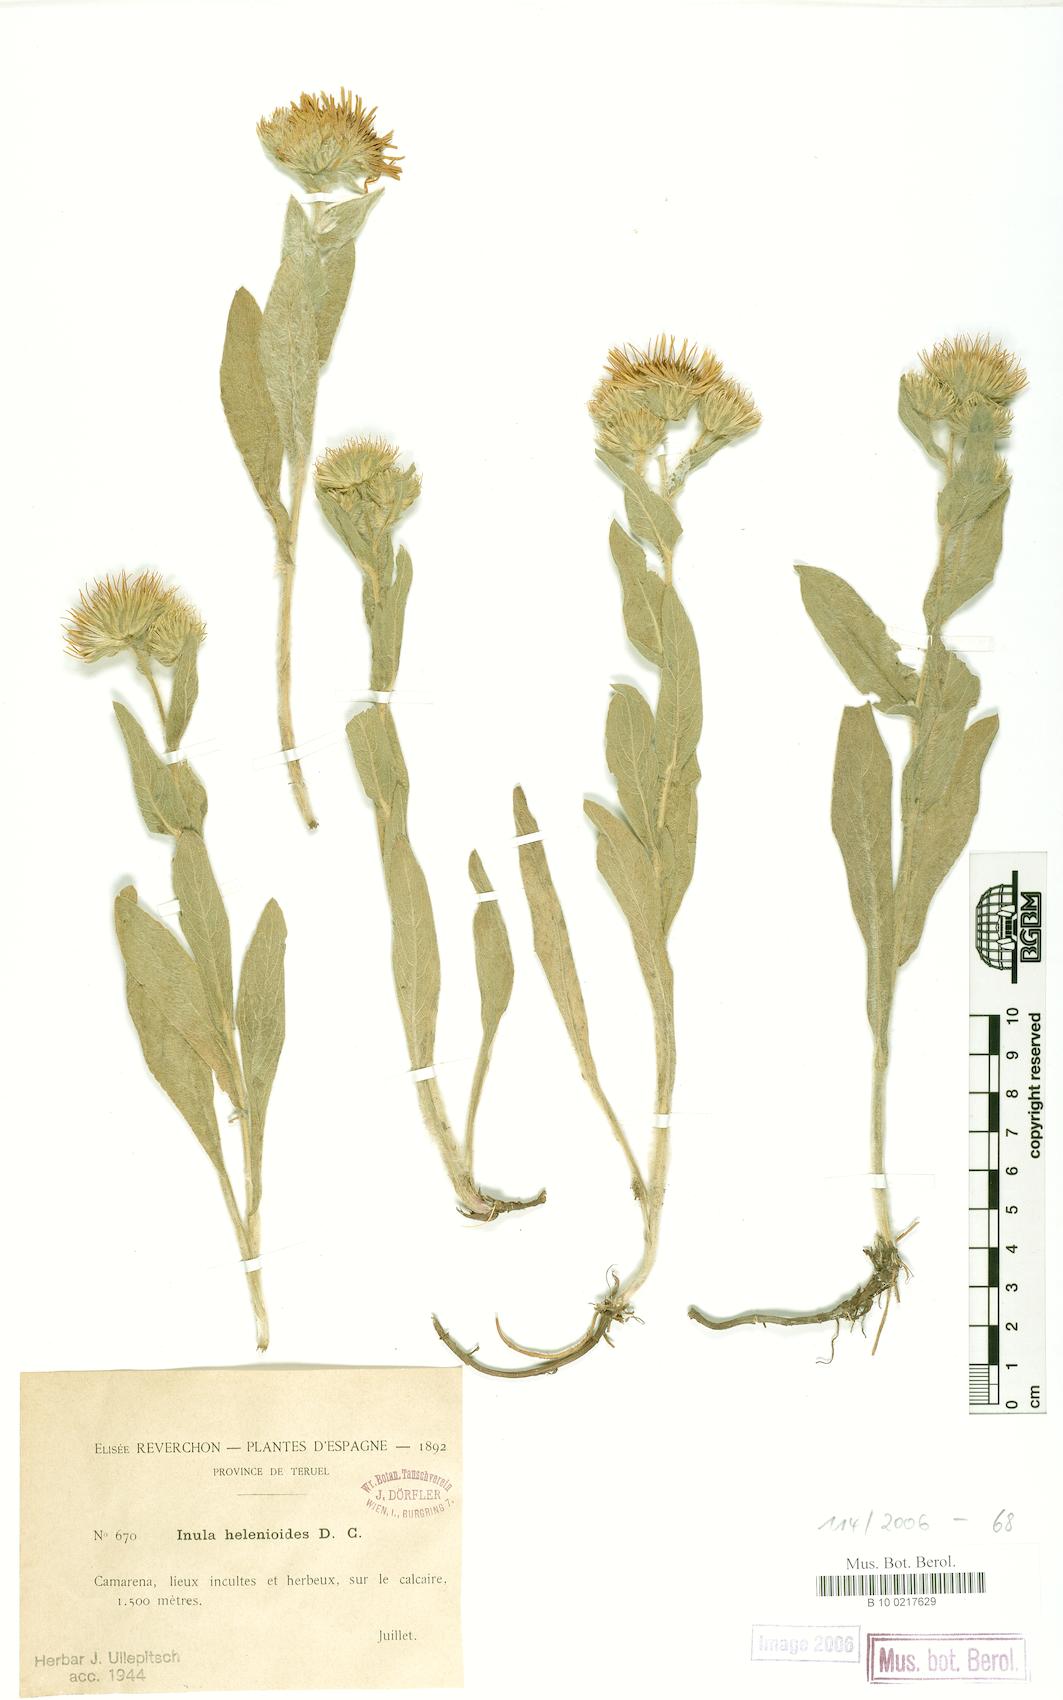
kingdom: Plantae
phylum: Tracheophyta
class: Magnoliopsida
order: Asterales
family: Asteraceae
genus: Pentanema
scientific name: Pentanema helenioides
